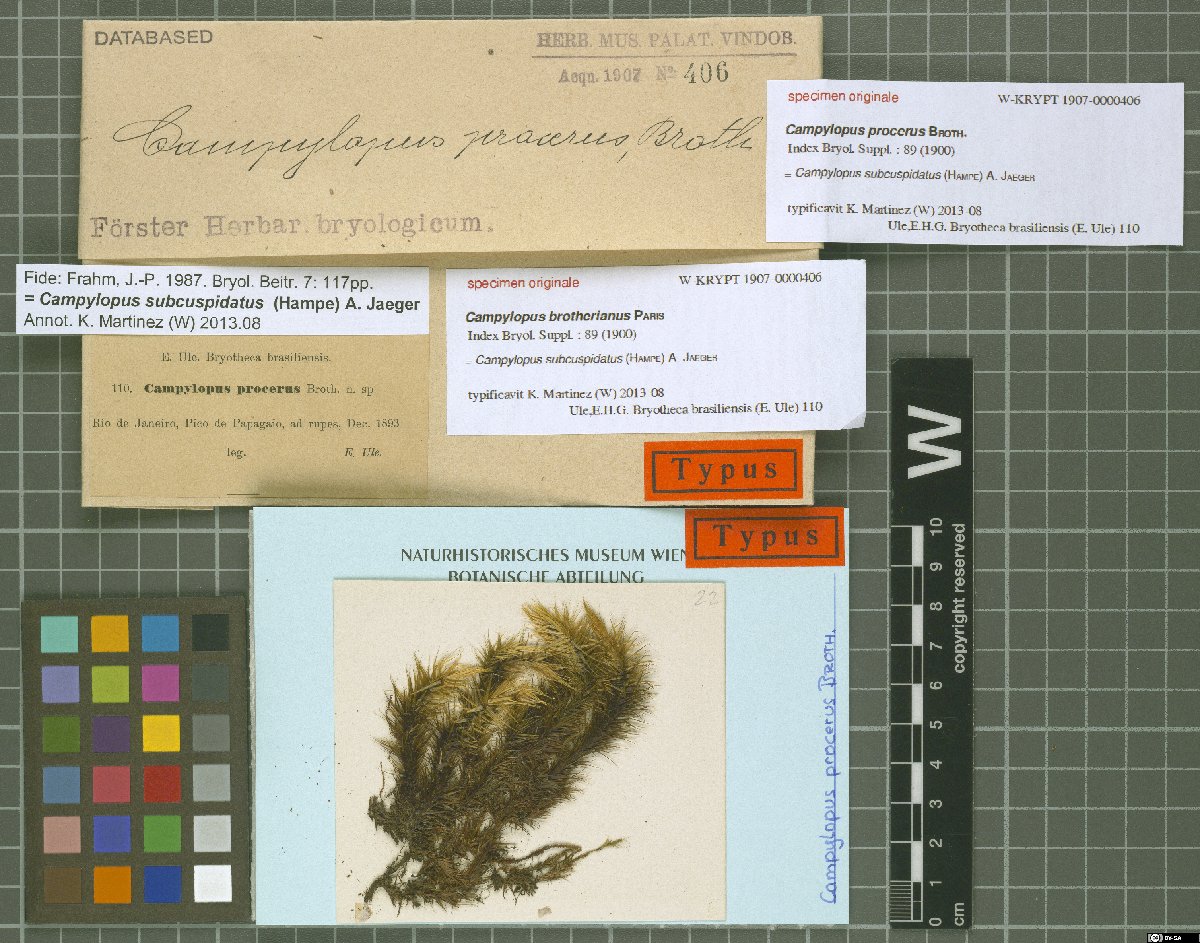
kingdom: Protozoa
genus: Campylopus
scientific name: Campylopus
